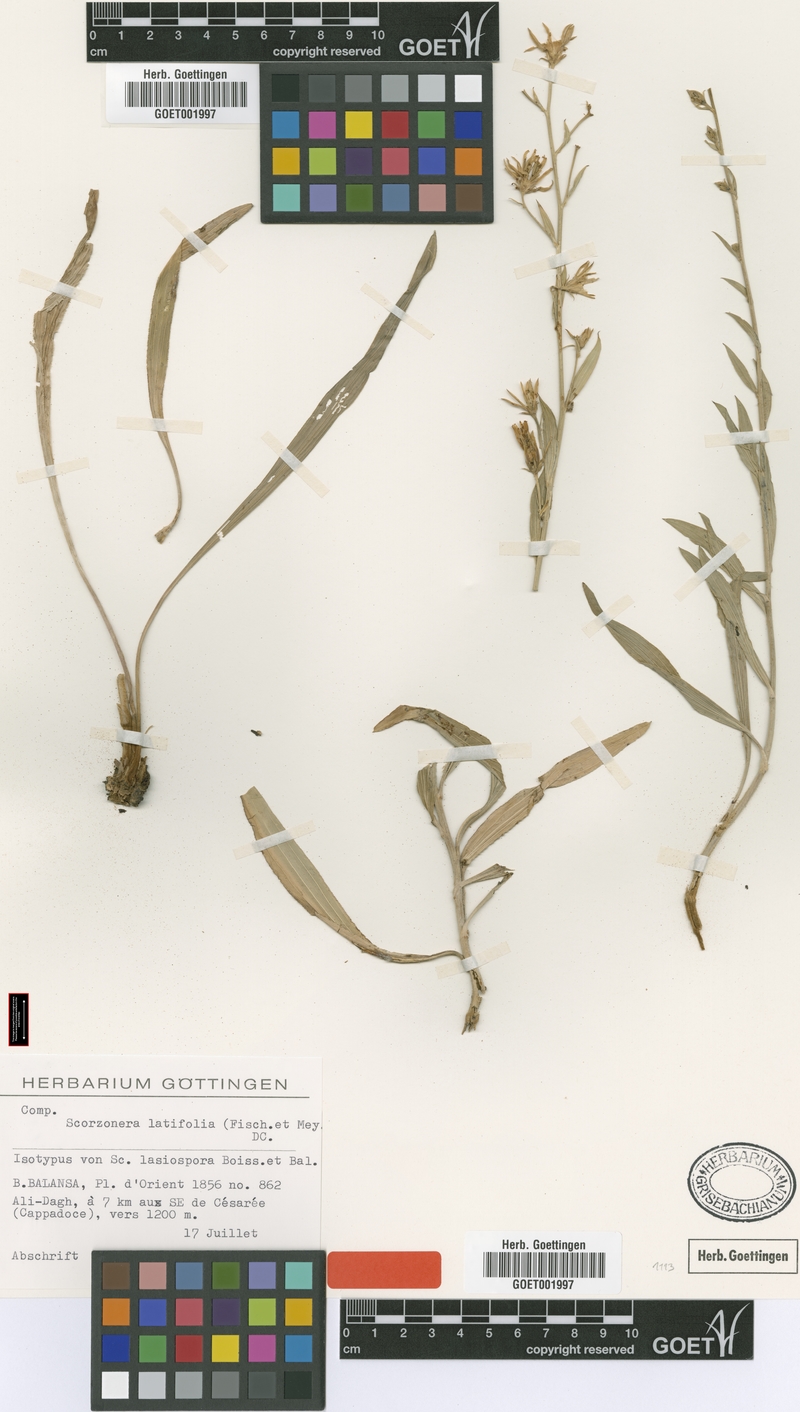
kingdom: Plantae
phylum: Tracheophyta
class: Magnoliopsida
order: Asterales
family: Asteraceae
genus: Guneria
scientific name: Guneria latifolia
